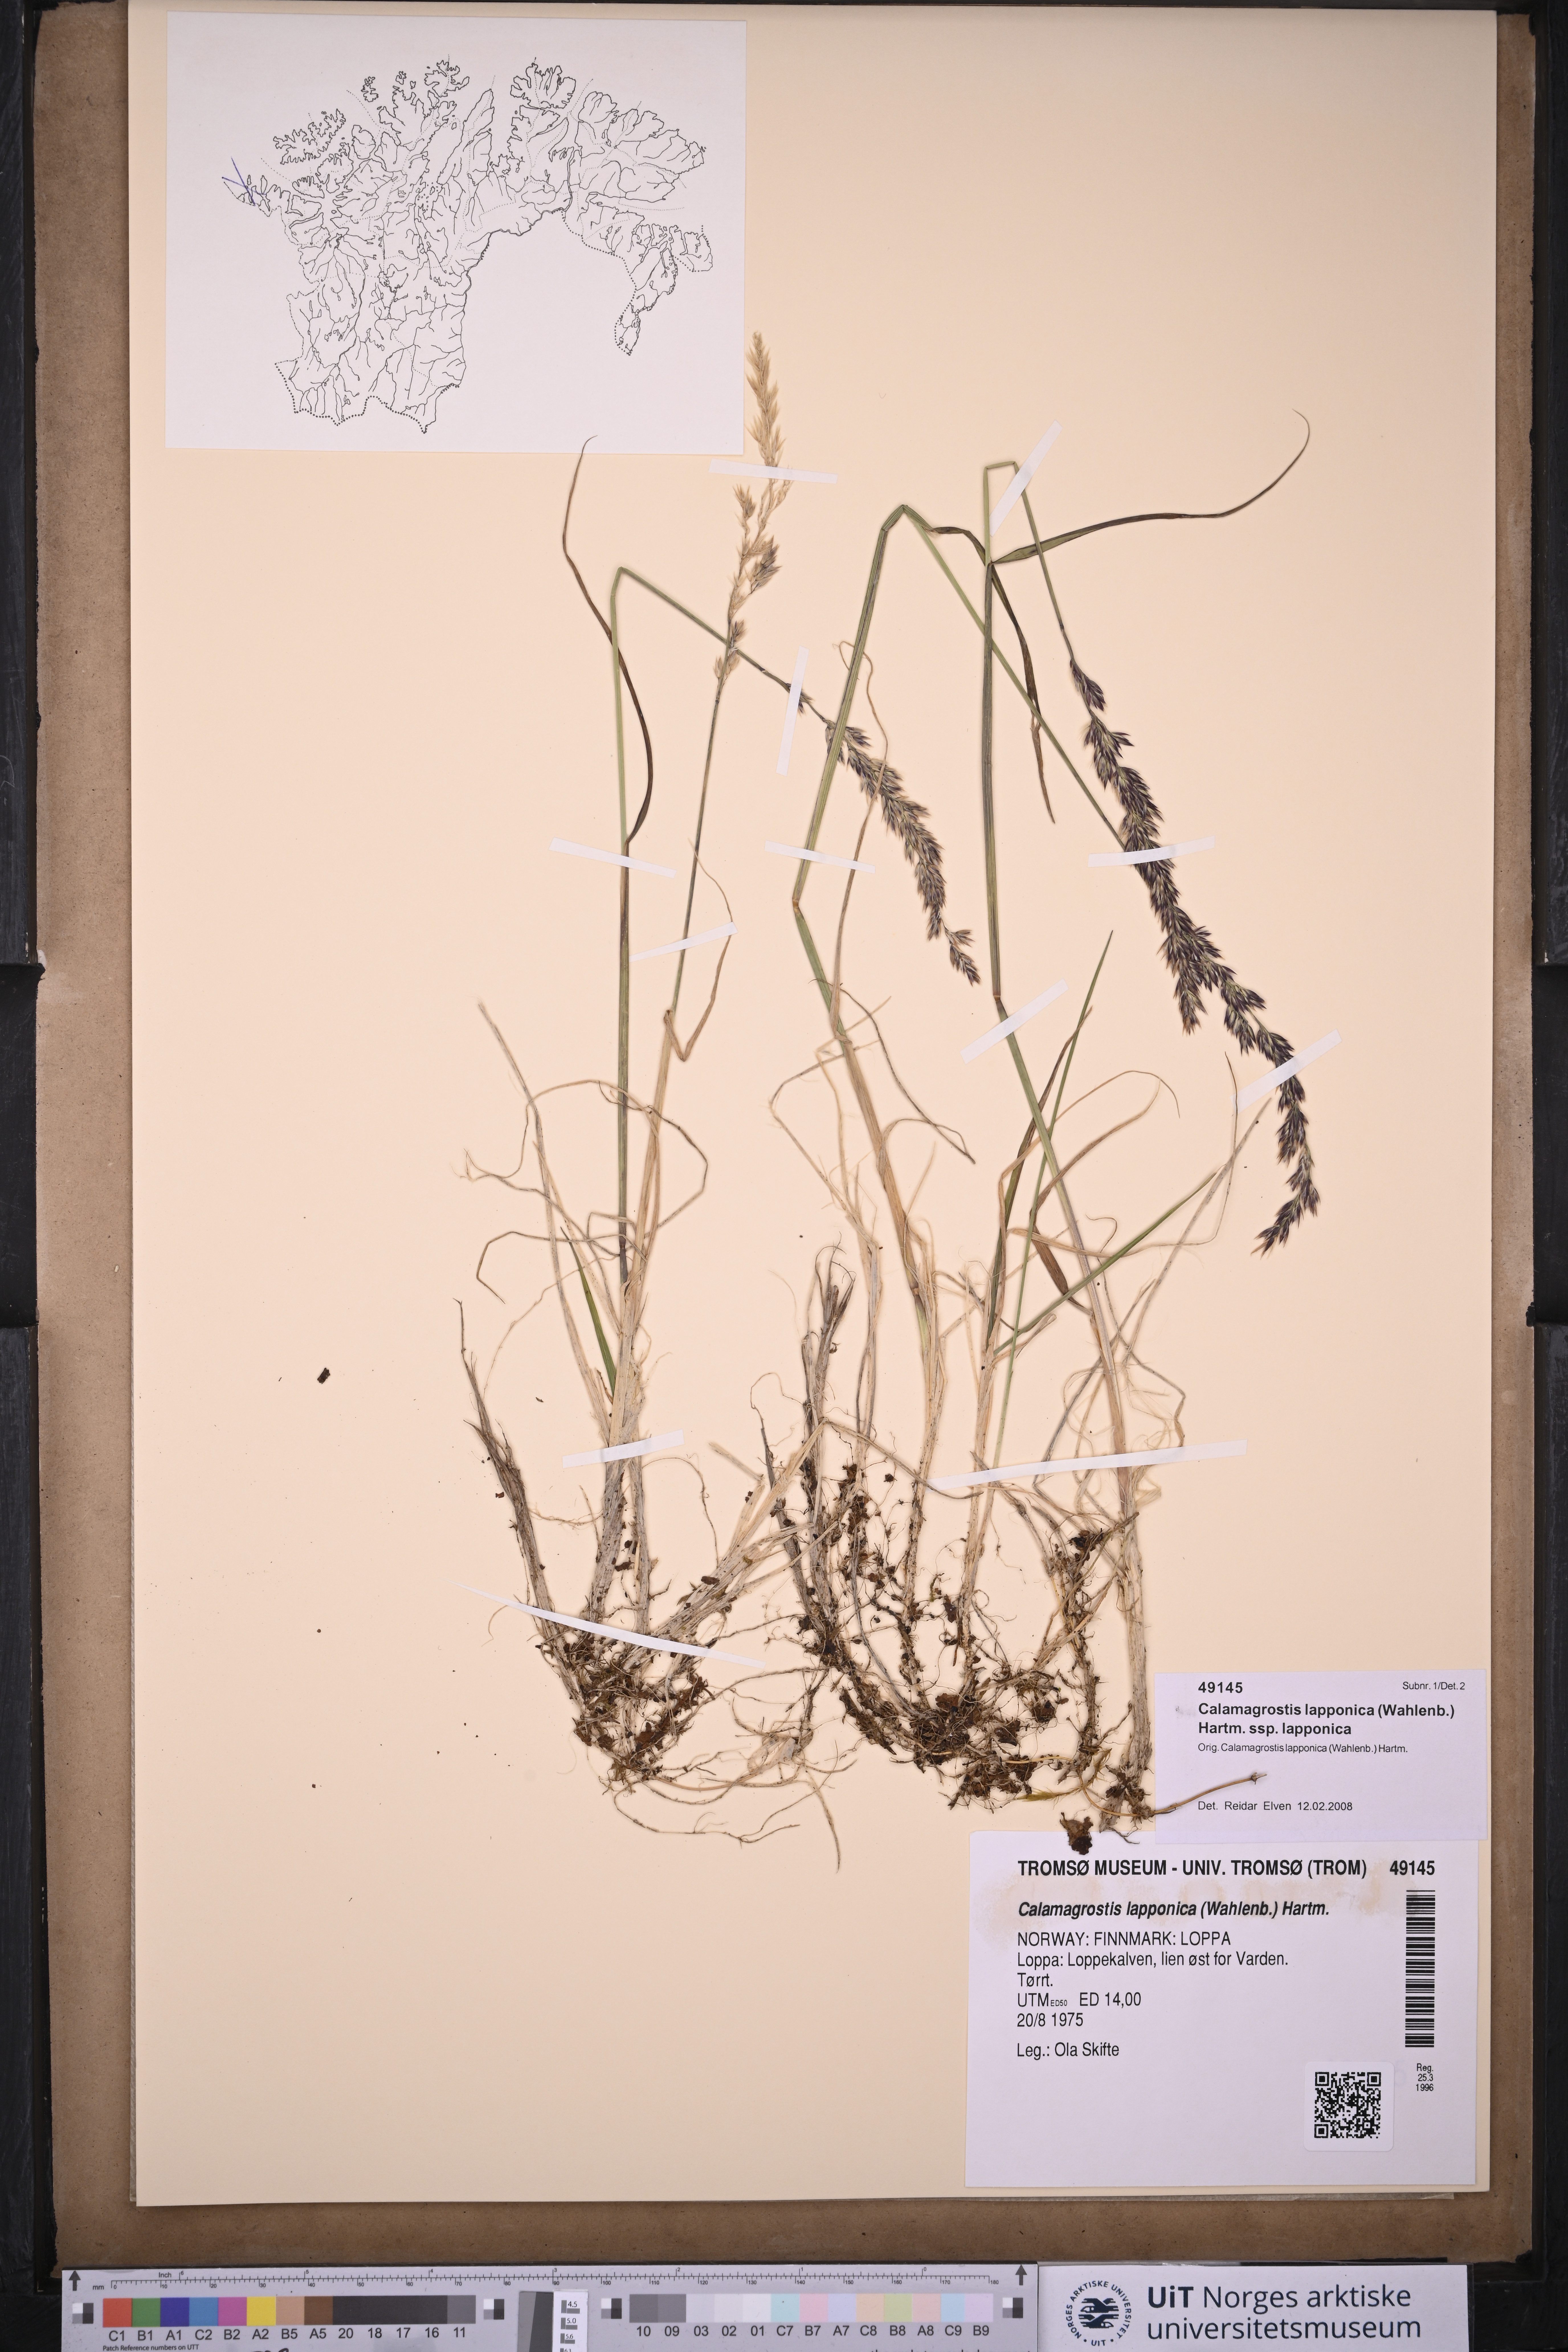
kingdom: Plantae
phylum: Tracheophyta
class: Liliopsida
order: Poales
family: Poaceae
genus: Calamagrostis
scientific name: Calamagrostis lapponica
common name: Lapland reedgrass
